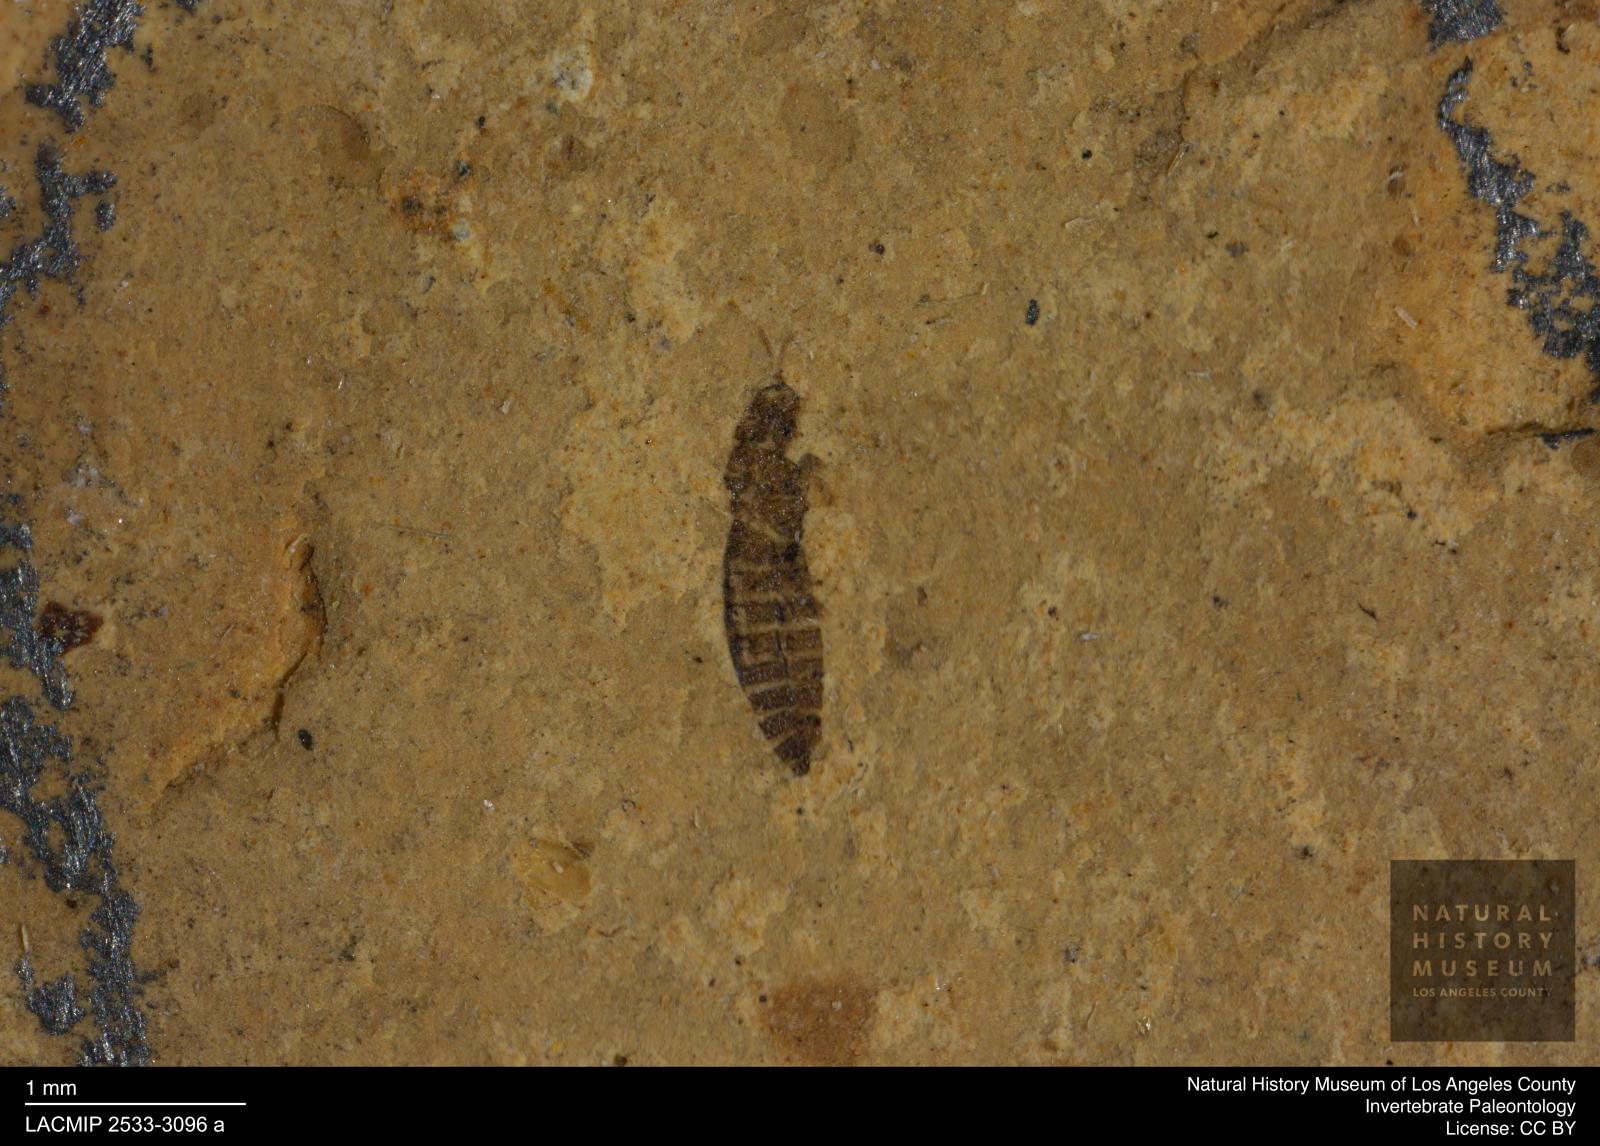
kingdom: Animalia
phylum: Arthropoda
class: Insecta
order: Thysanoptera
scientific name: Thysanoptera
